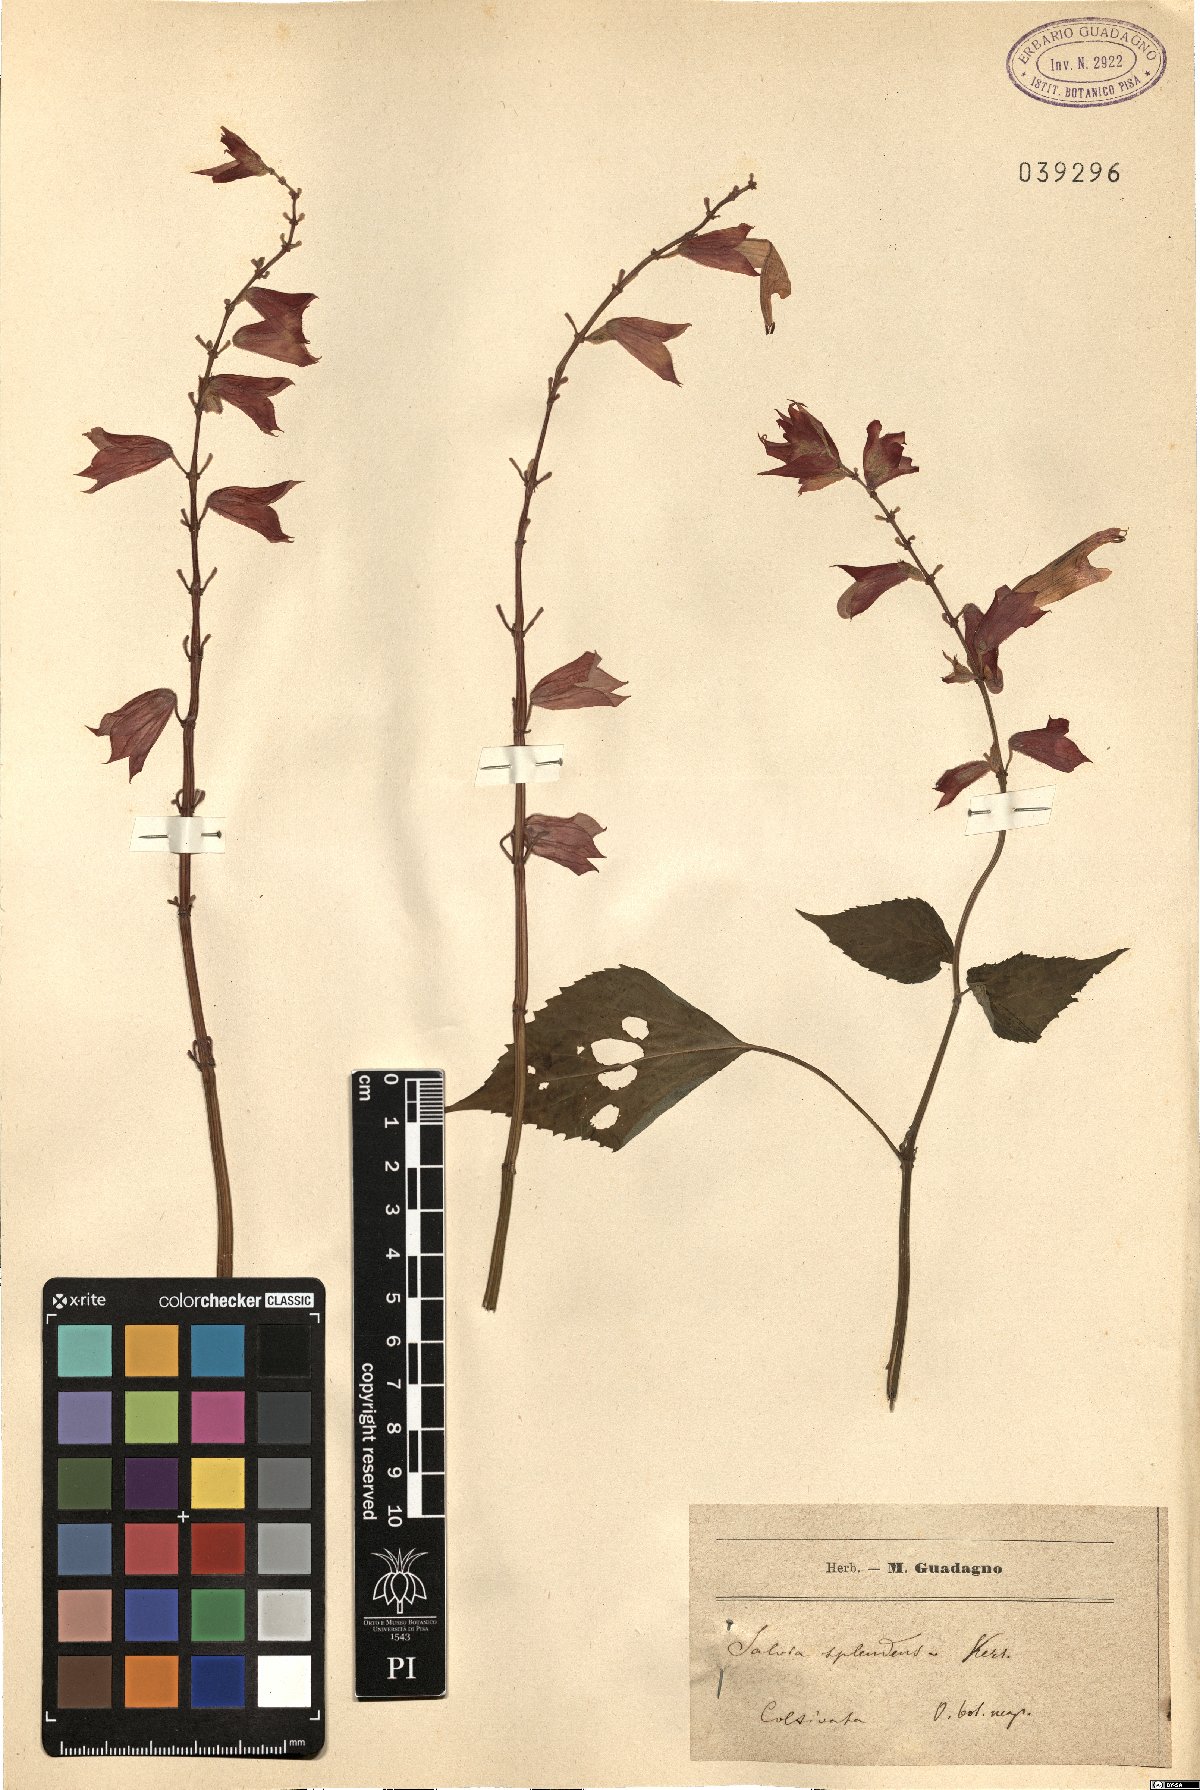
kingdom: Plantae
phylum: Tracheophyta
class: Magnoliopsida
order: Lamiales
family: Lamiaceae
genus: Salvia
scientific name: Salvia splendens
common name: Scarlet sage
